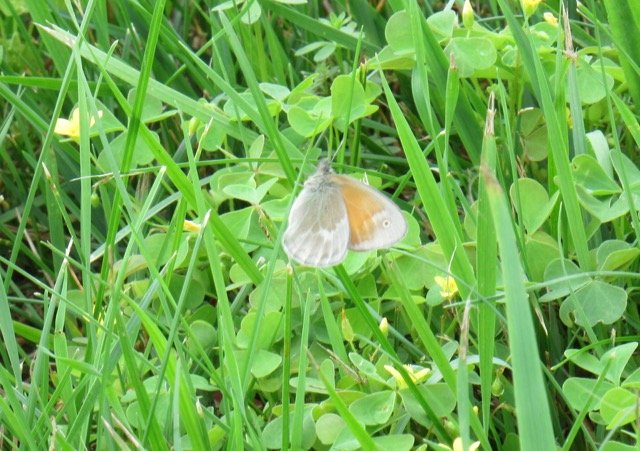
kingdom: Animalia
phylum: Arthropoda
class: Insecta
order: Lepidoptera
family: Nymphalidae
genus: Coenonympha
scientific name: Coenonympha tullia
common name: Large Heath
